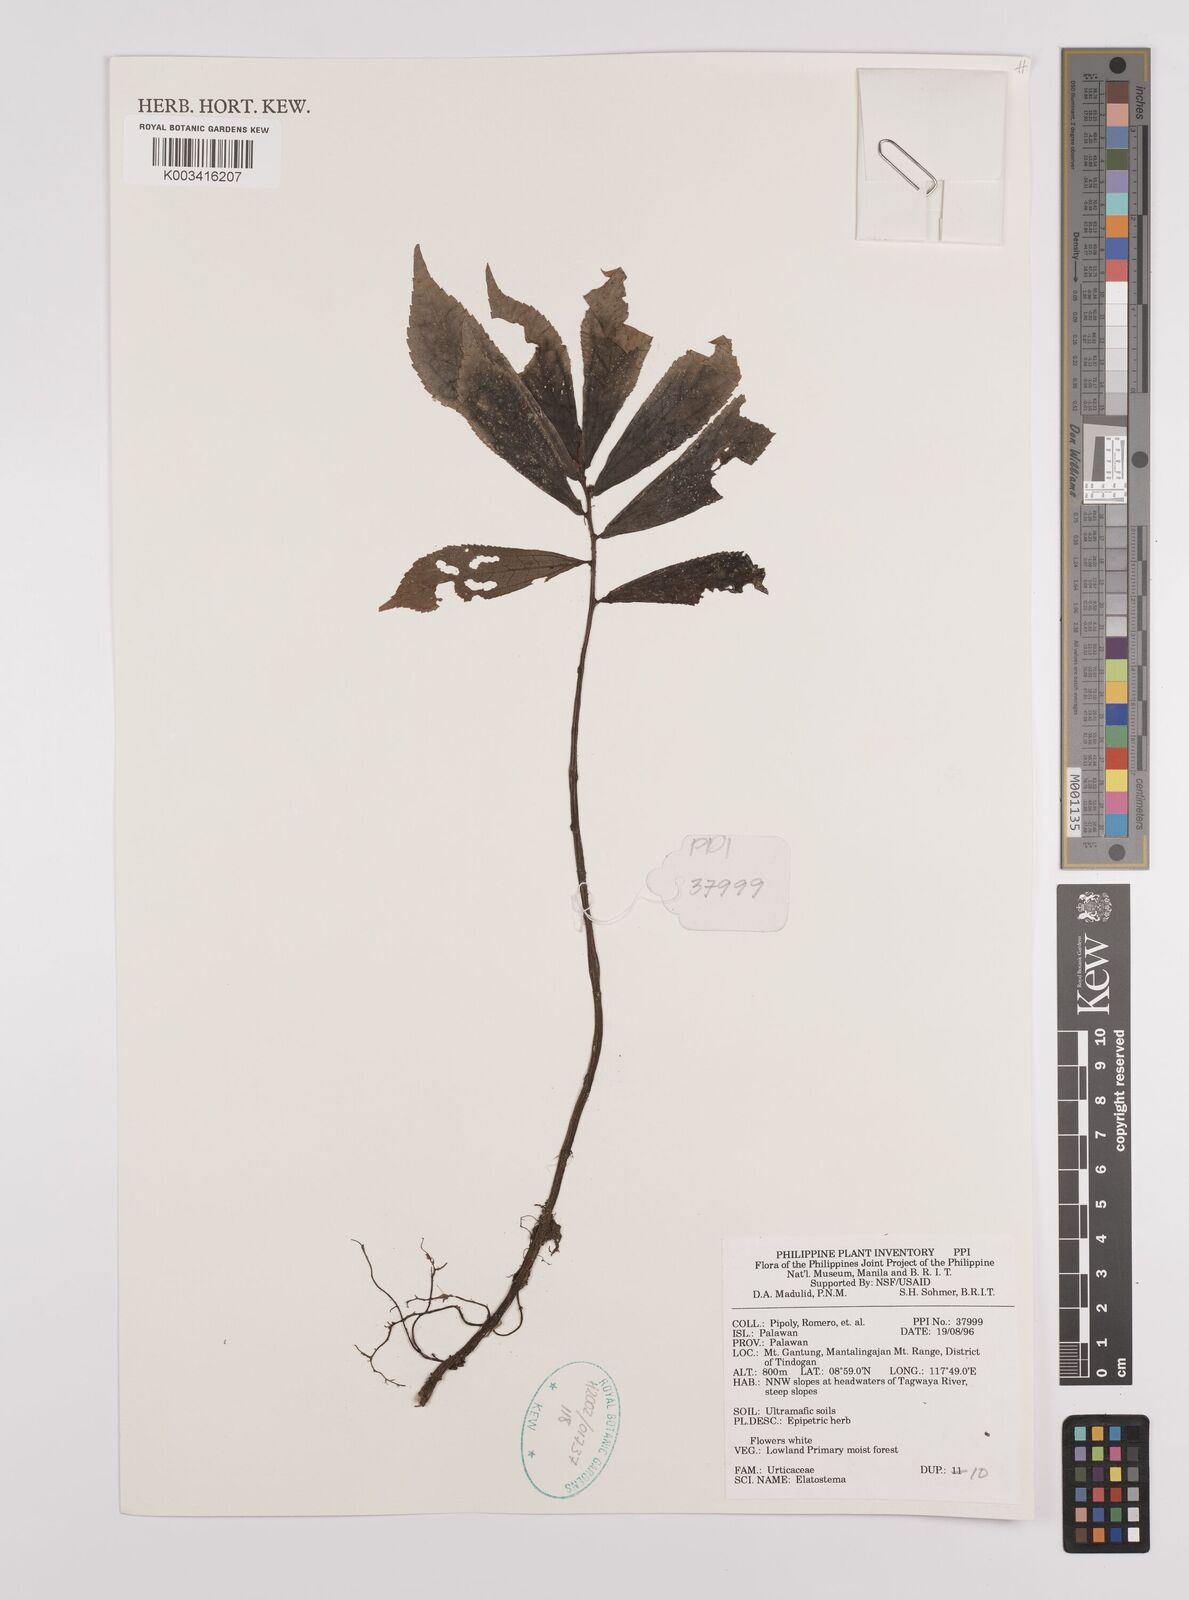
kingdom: Plantae
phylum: Tracheophyta
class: Magnoliopsida
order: Rosales
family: Urticaceae
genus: Elatostema
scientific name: Elatostema
